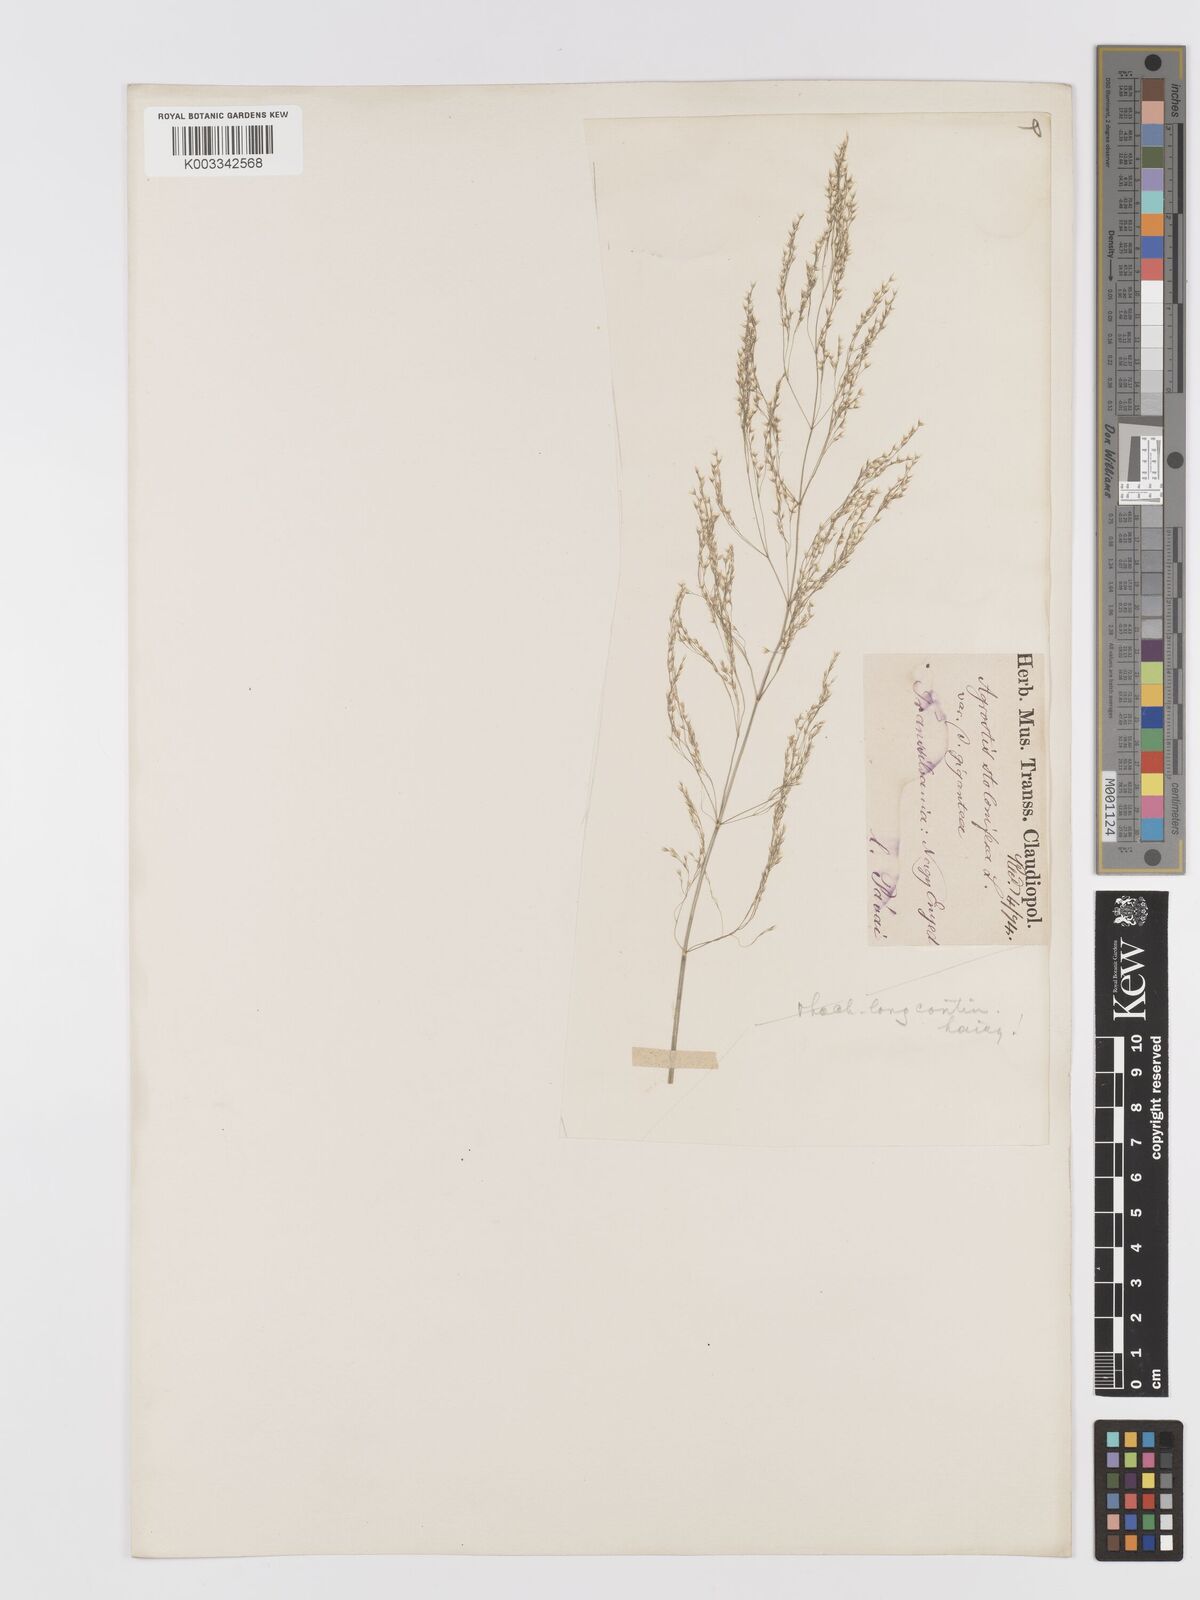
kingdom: Plantae
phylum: Tracheophyta
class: Liliopsida
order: Poales
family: Poaceae
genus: Agrostis
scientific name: Agrostis
